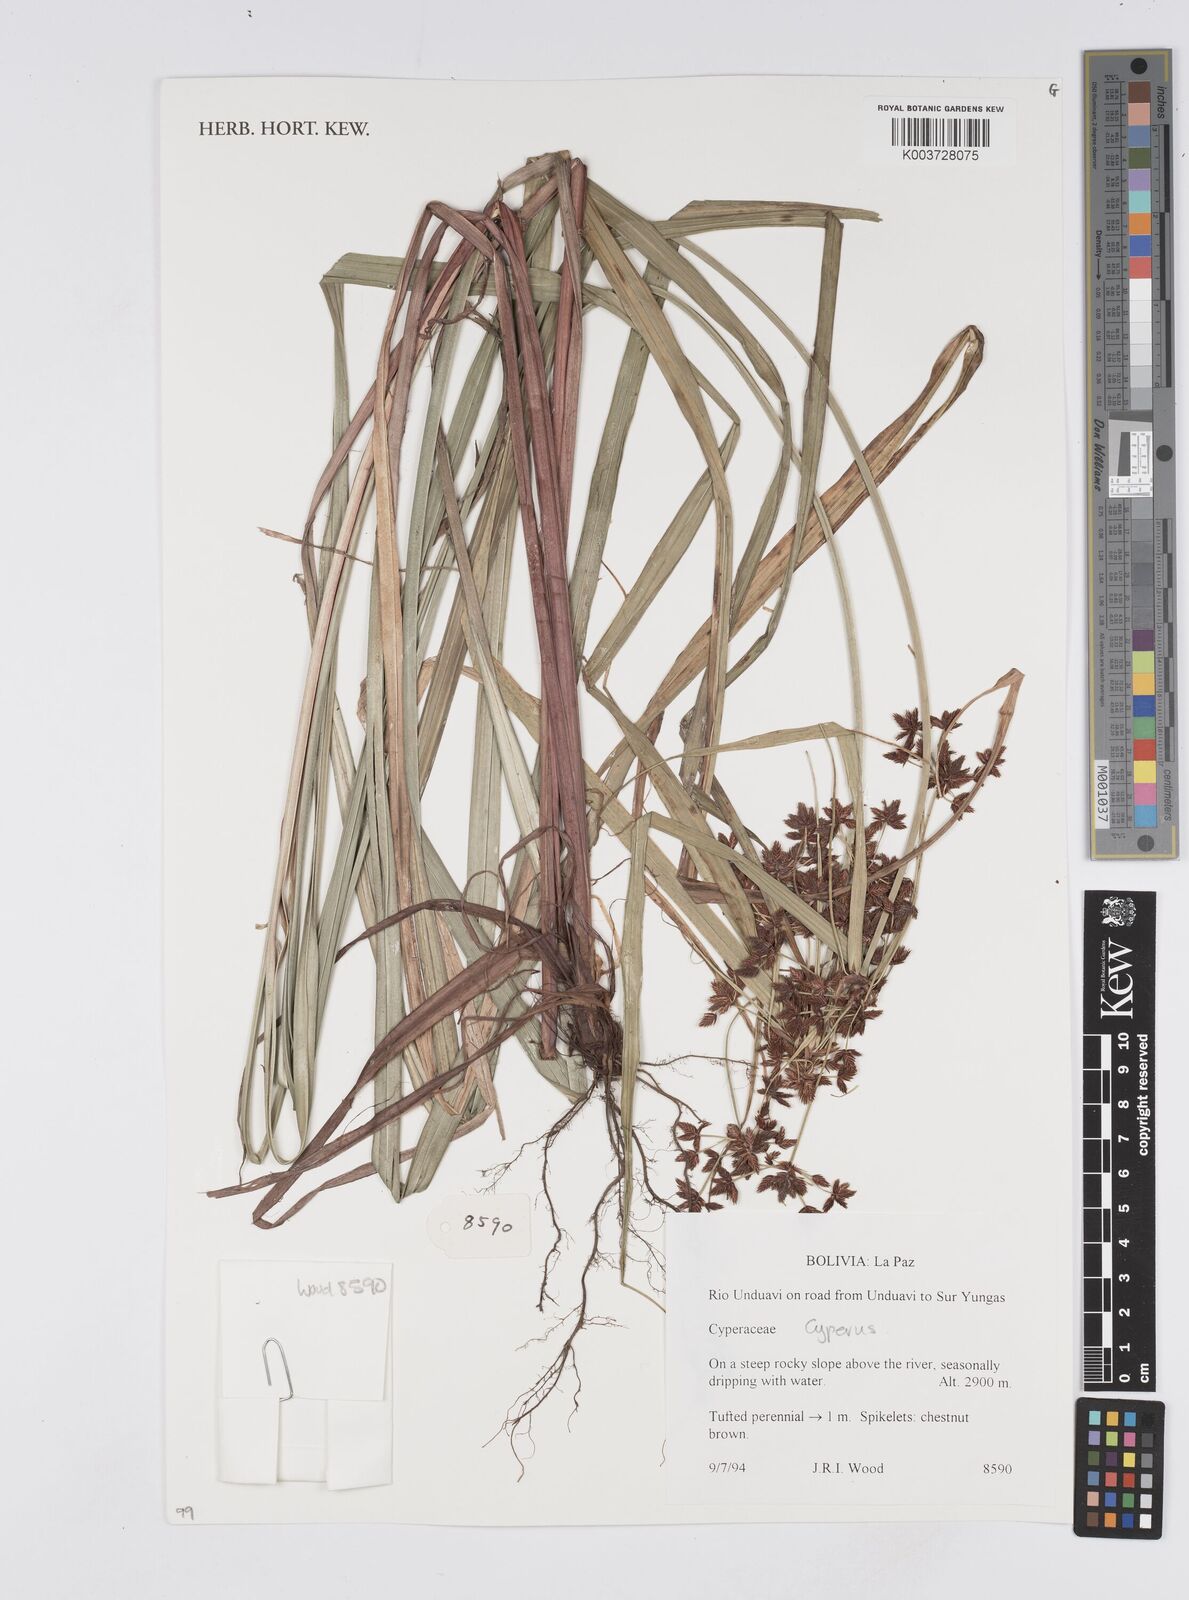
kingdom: Plantae
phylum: Tracheophyta
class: Liliopsida
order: Poales
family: Cyperaceae
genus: Cyperus
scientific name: Cyperus
